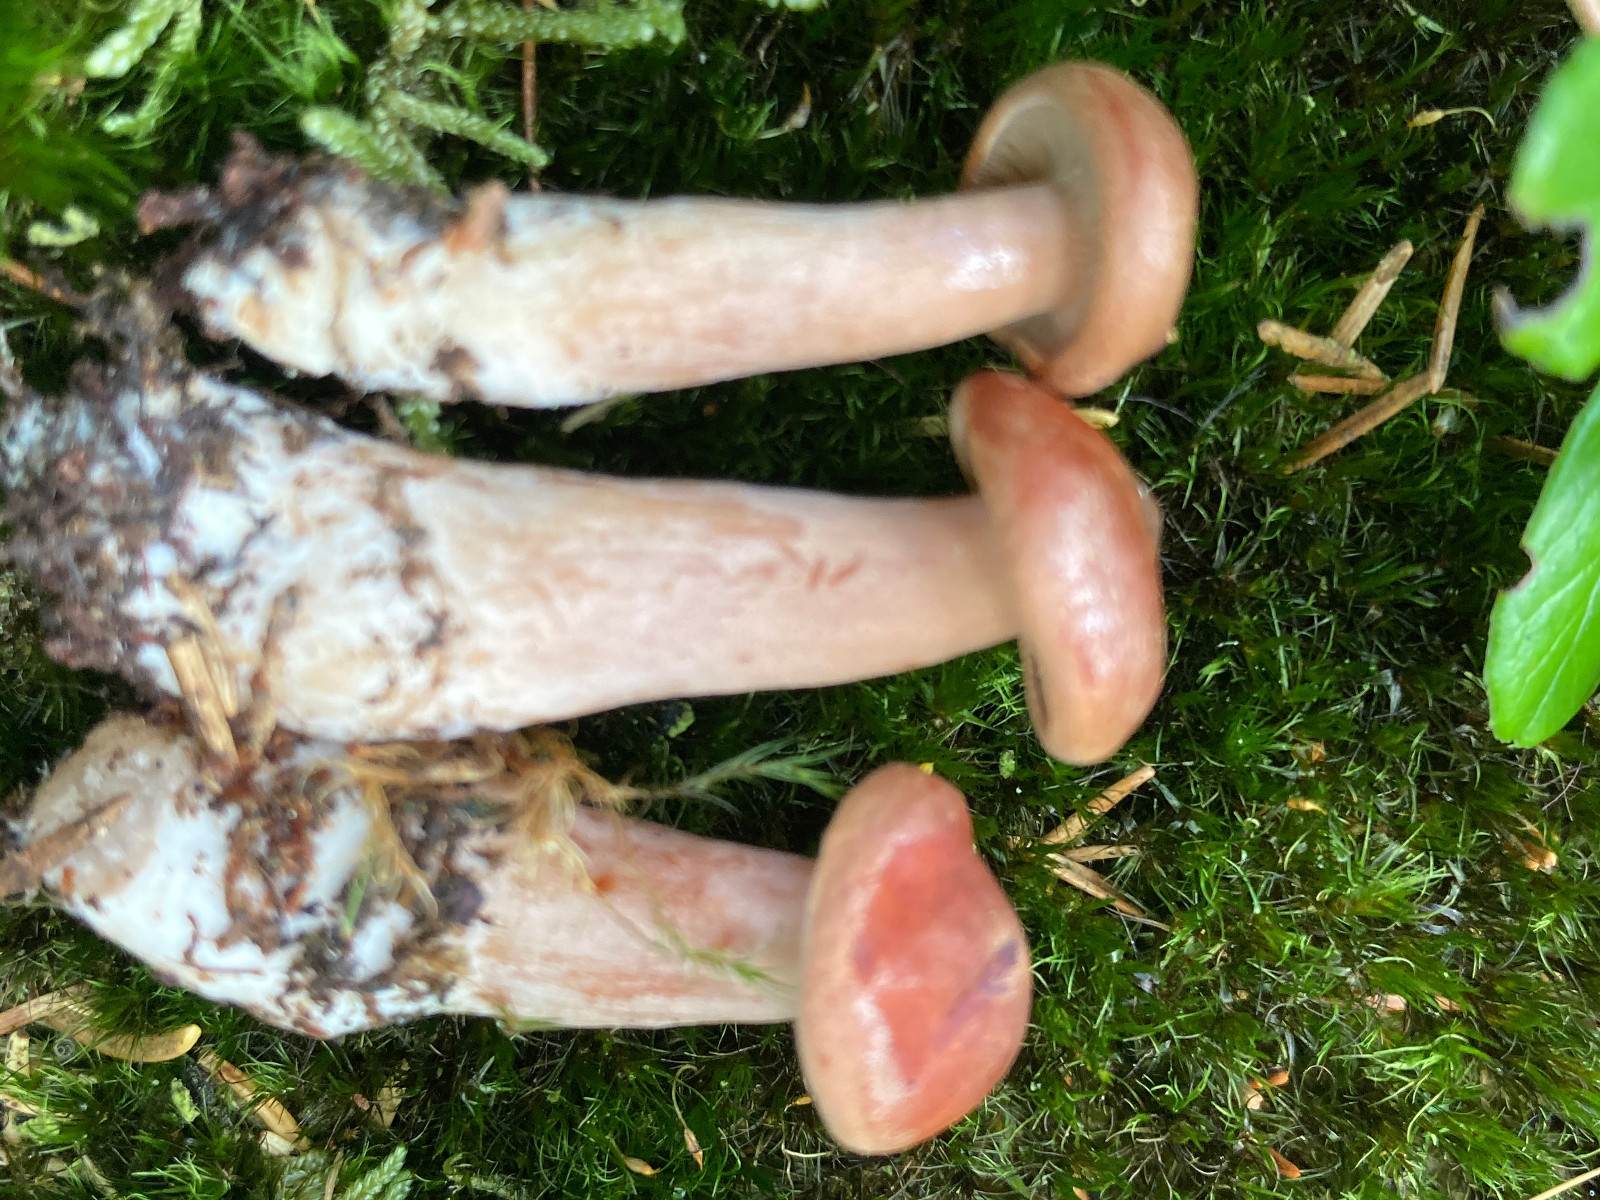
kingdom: Fungi
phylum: Basidiomycota
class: Agaricomycetes
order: Russulales
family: Russulaceae
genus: Lactarius
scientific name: Lactarius rufus
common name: rødbrun mælkehat
